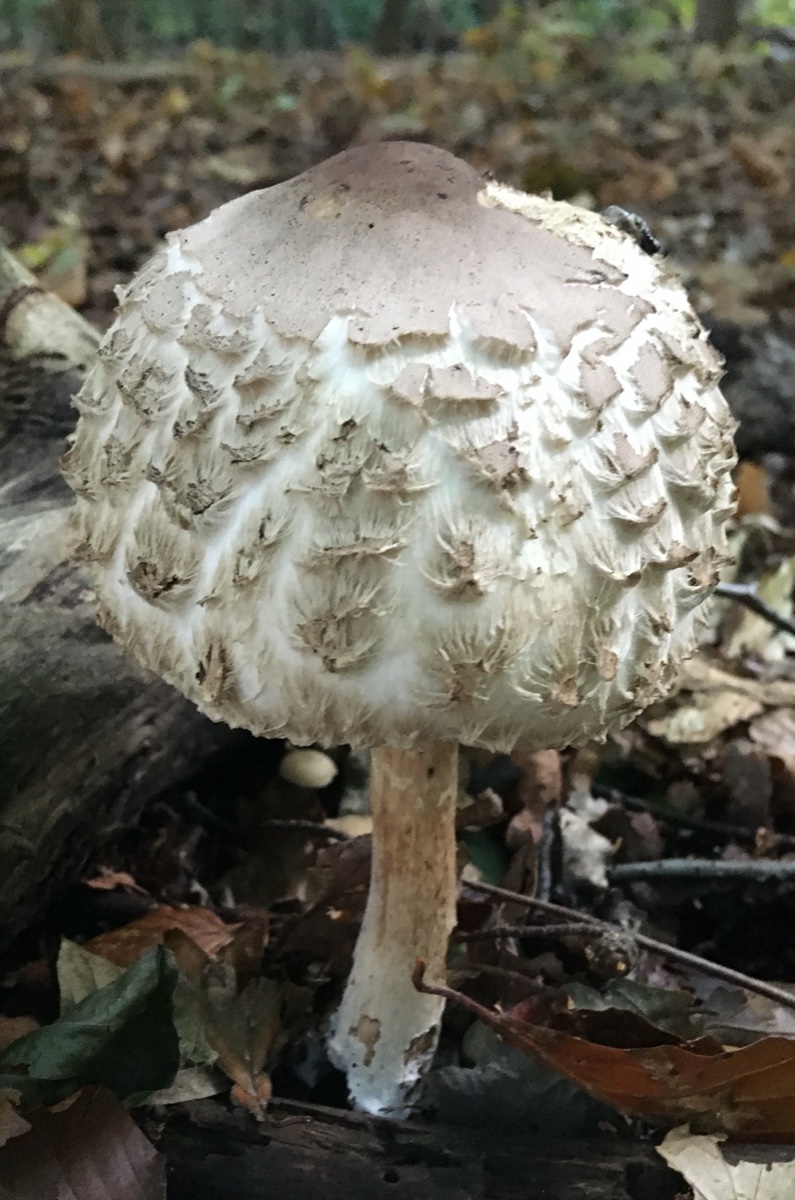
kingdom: Fungi
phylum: Basidiomycota
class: Agaricomycetes
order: Agaricales
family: Agaricaceae
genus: Chlorophyllum
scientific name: Chlorophyllum rhacodes
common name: ægte rabarberhat
